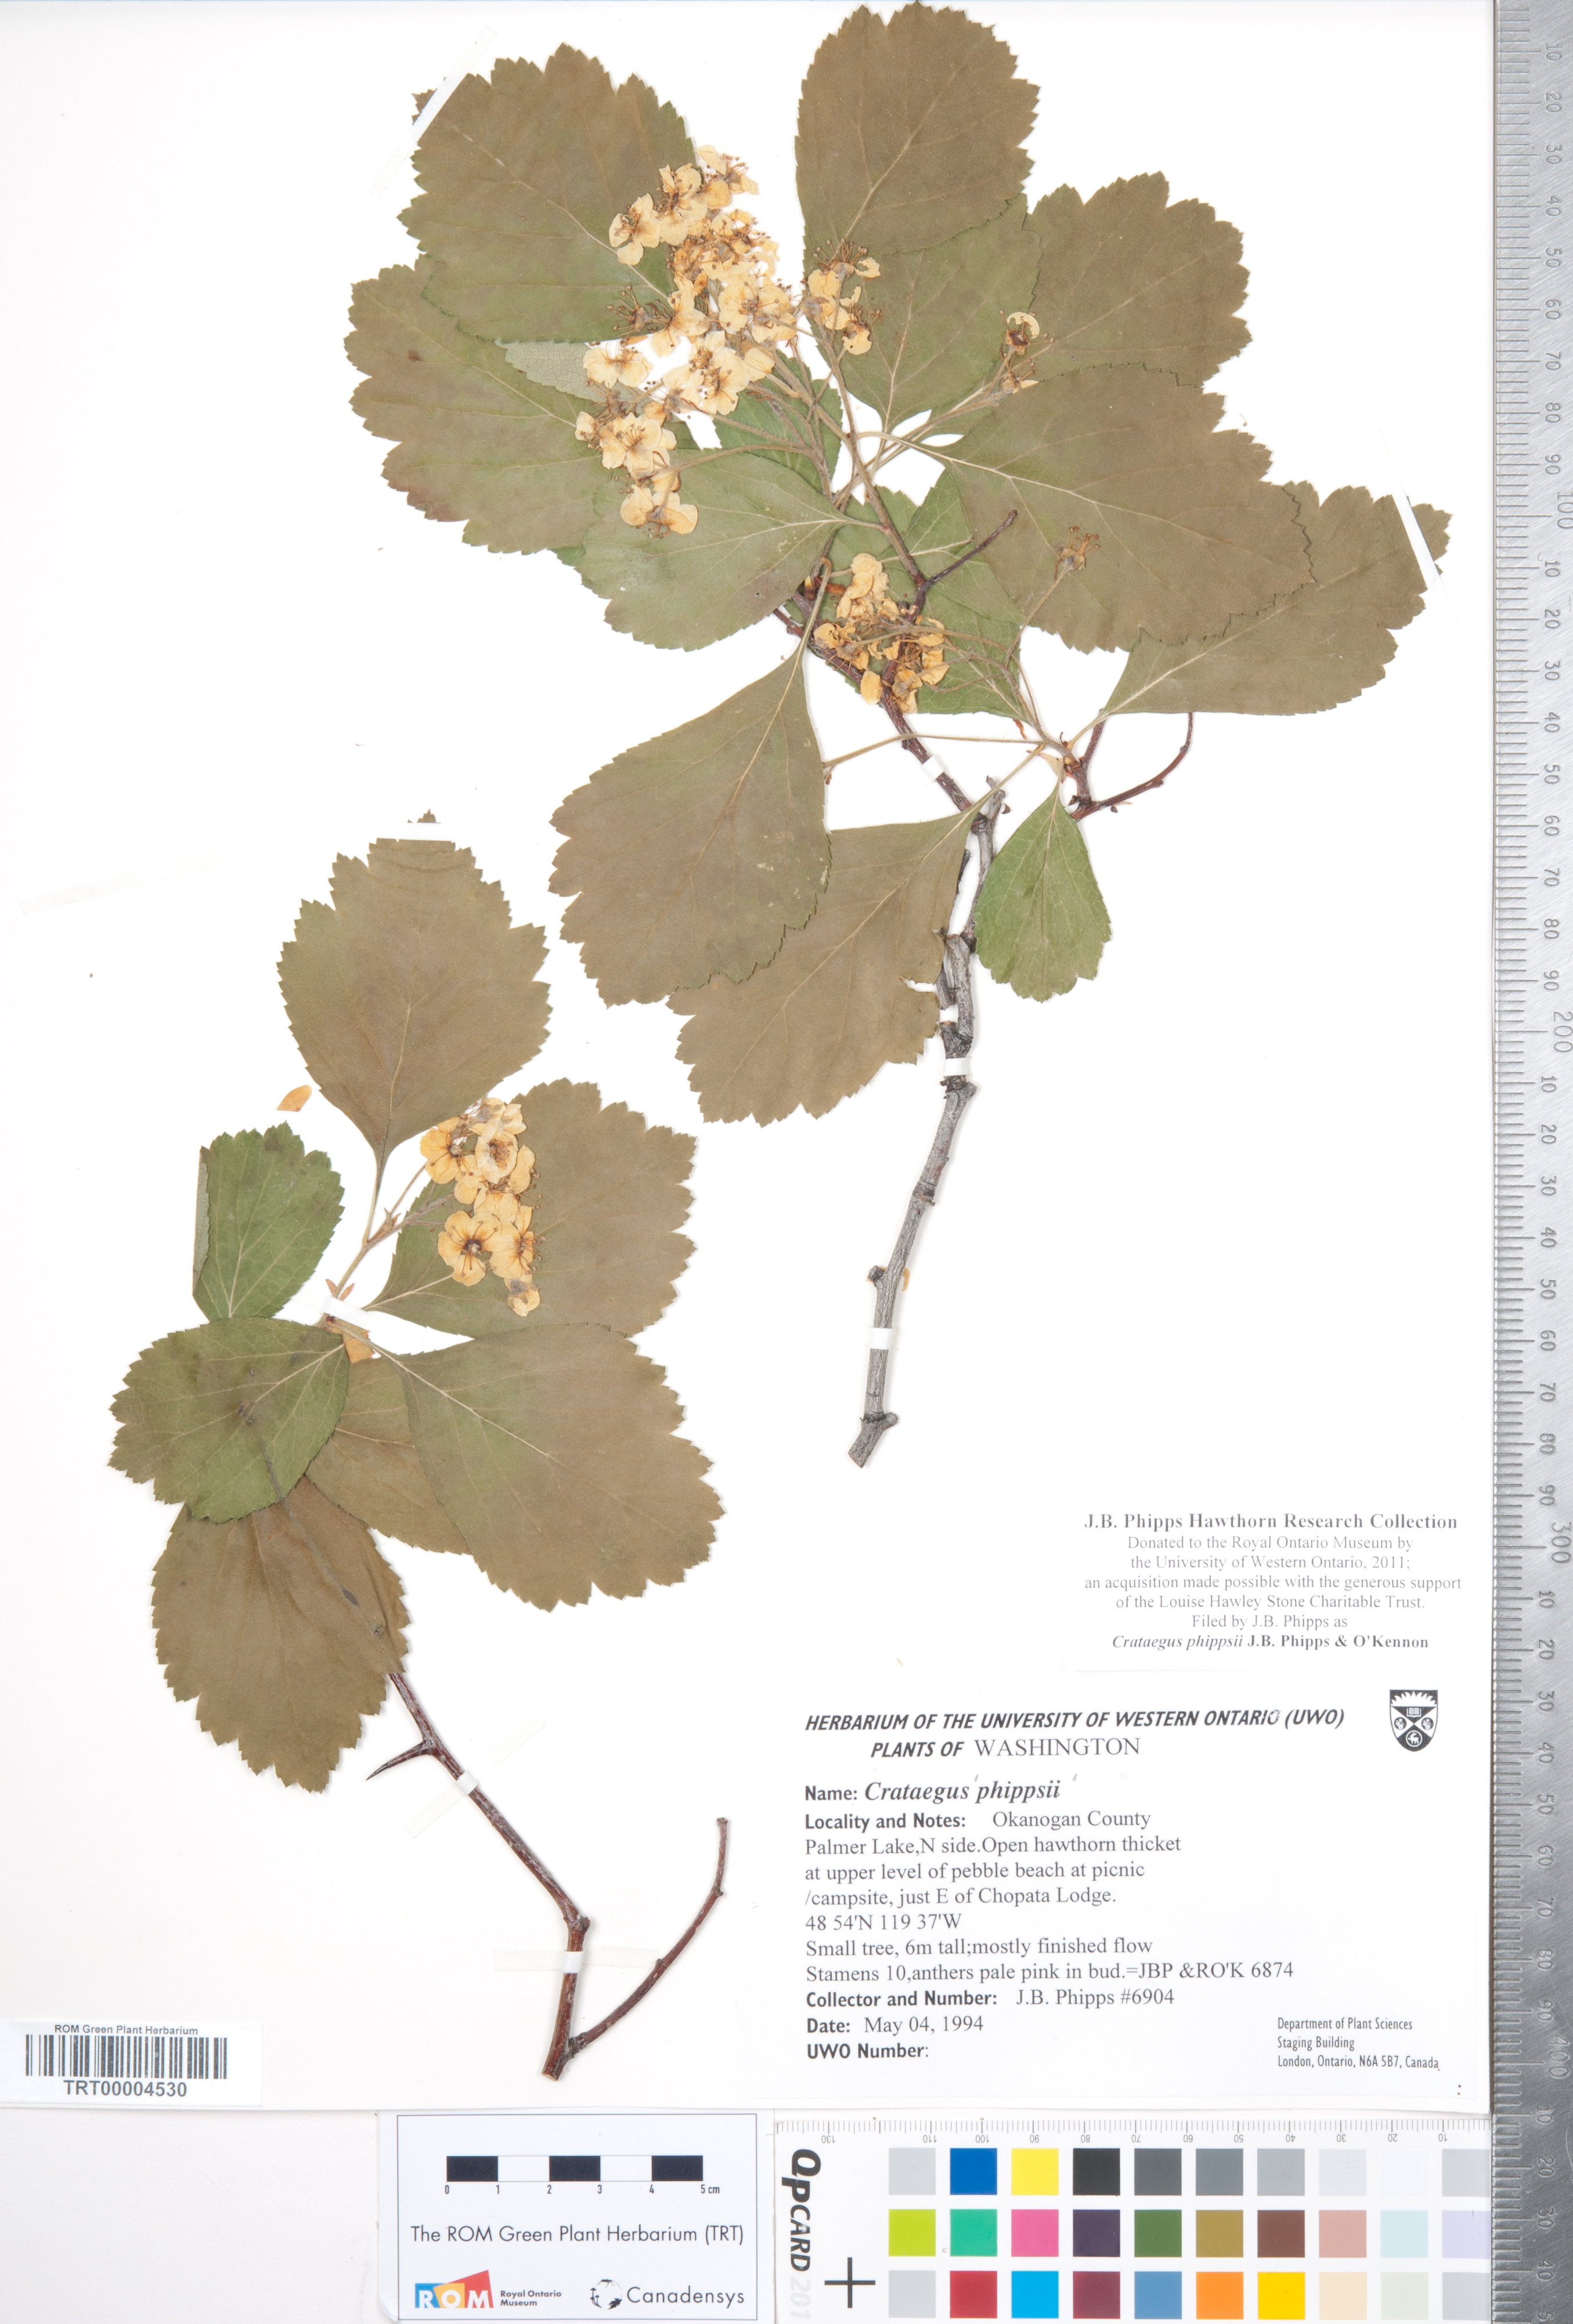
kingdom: Plantae
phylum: Tracheophyta
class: Magnoliopsida
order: Rosales
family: Rosaceae
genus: Crataegus
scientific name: Crataegus phippsii
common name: Phipps' hawthorn
